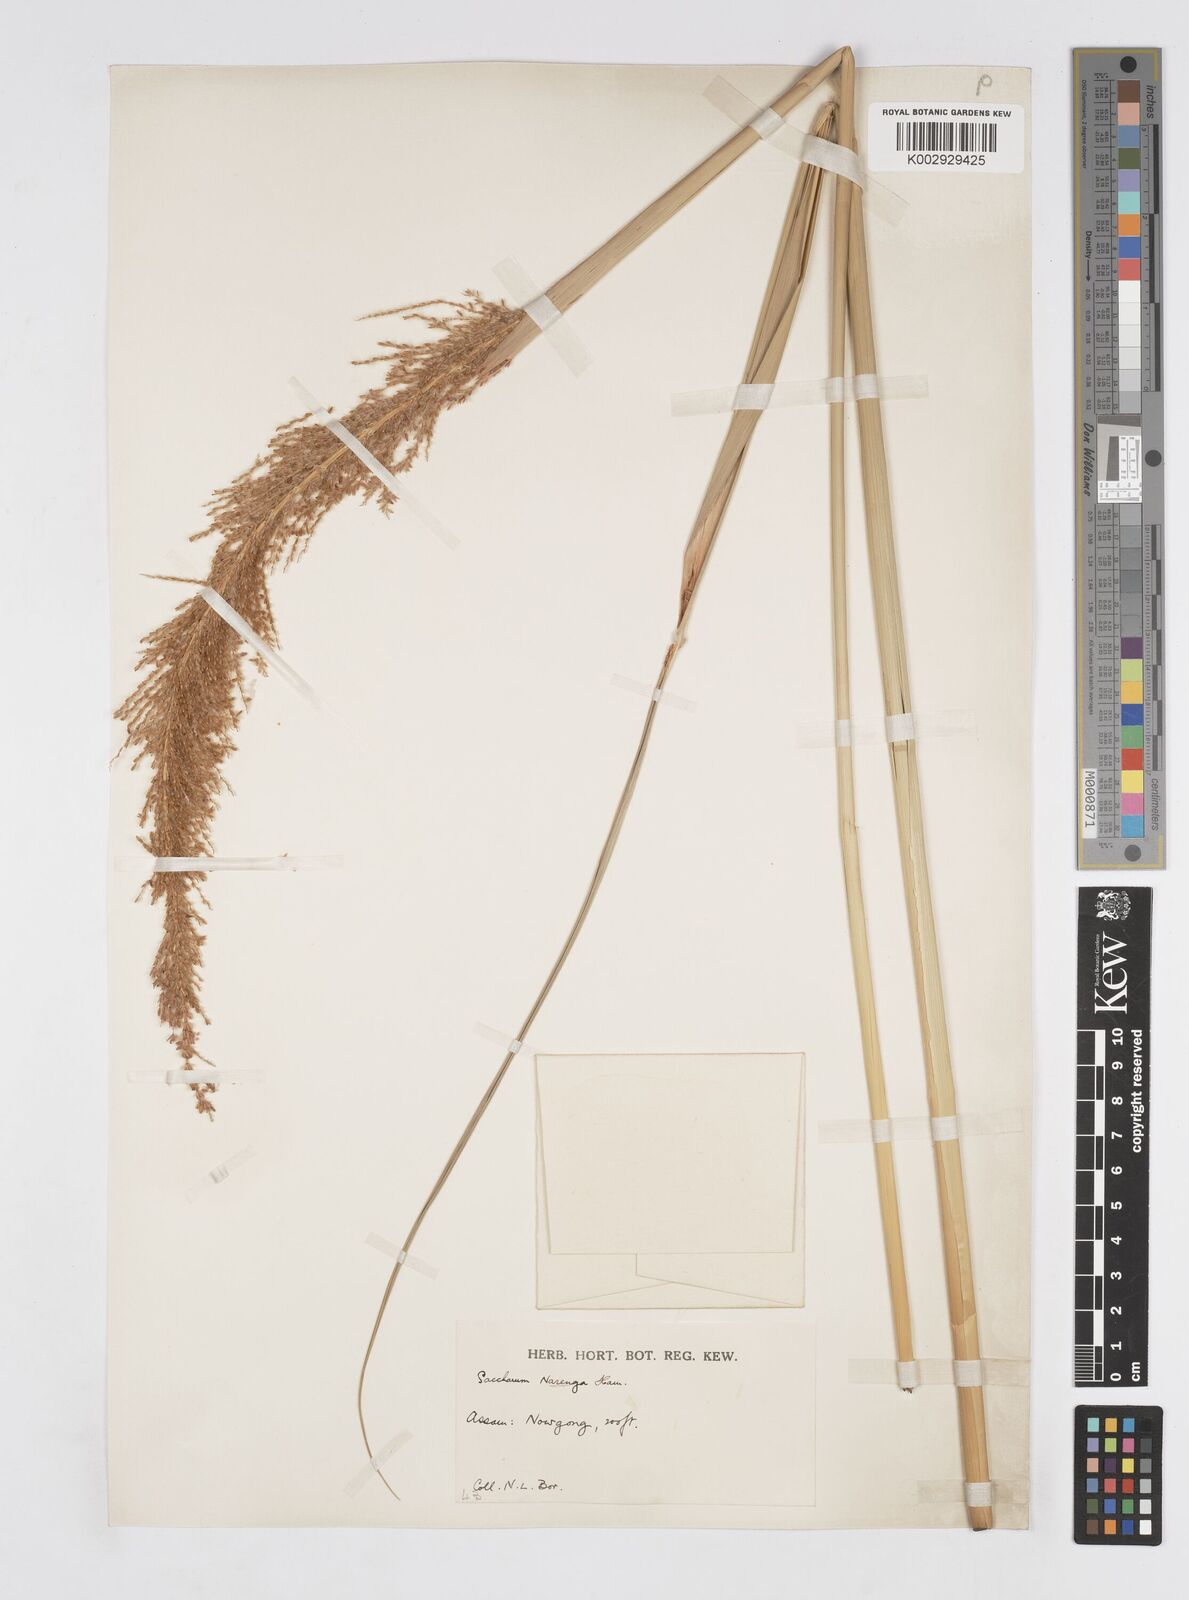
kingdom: Plantae
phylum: Tracheophyta
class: Liliopsida
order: Poales
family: Poaceae
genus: Narenga
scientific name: Narenga porphyrocoma
